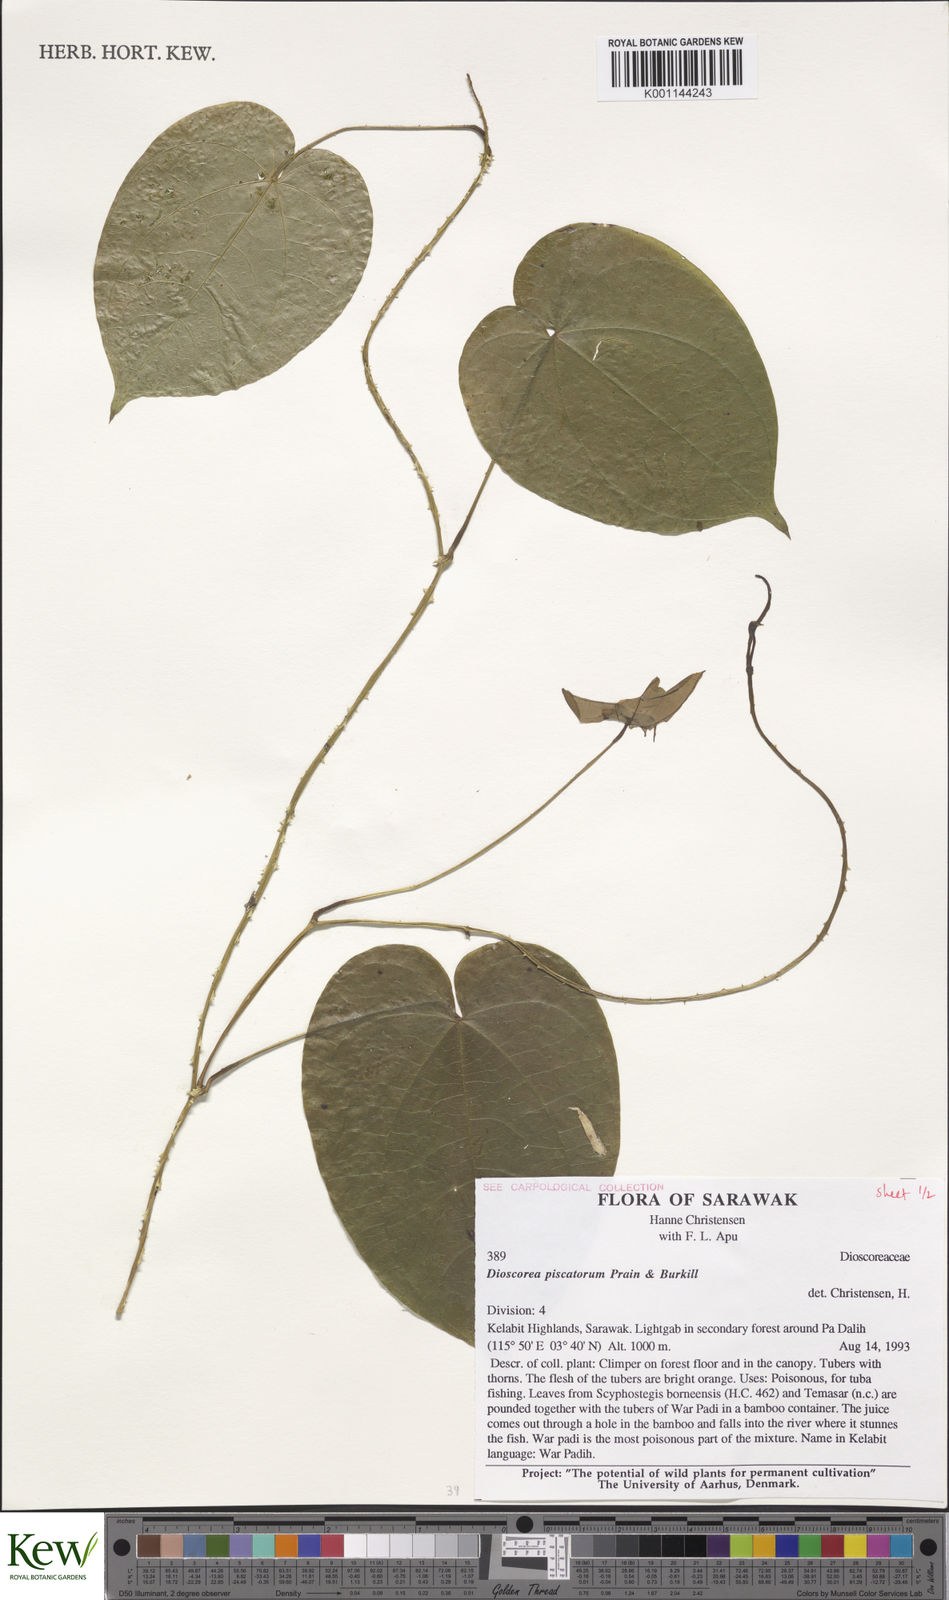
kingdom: Plantae
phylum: Tracheophyta
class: Liliopsida
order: Dioscoreales
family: Dioscoreaceae
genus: Dioscorea
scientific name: Dioscorea piscatorum
